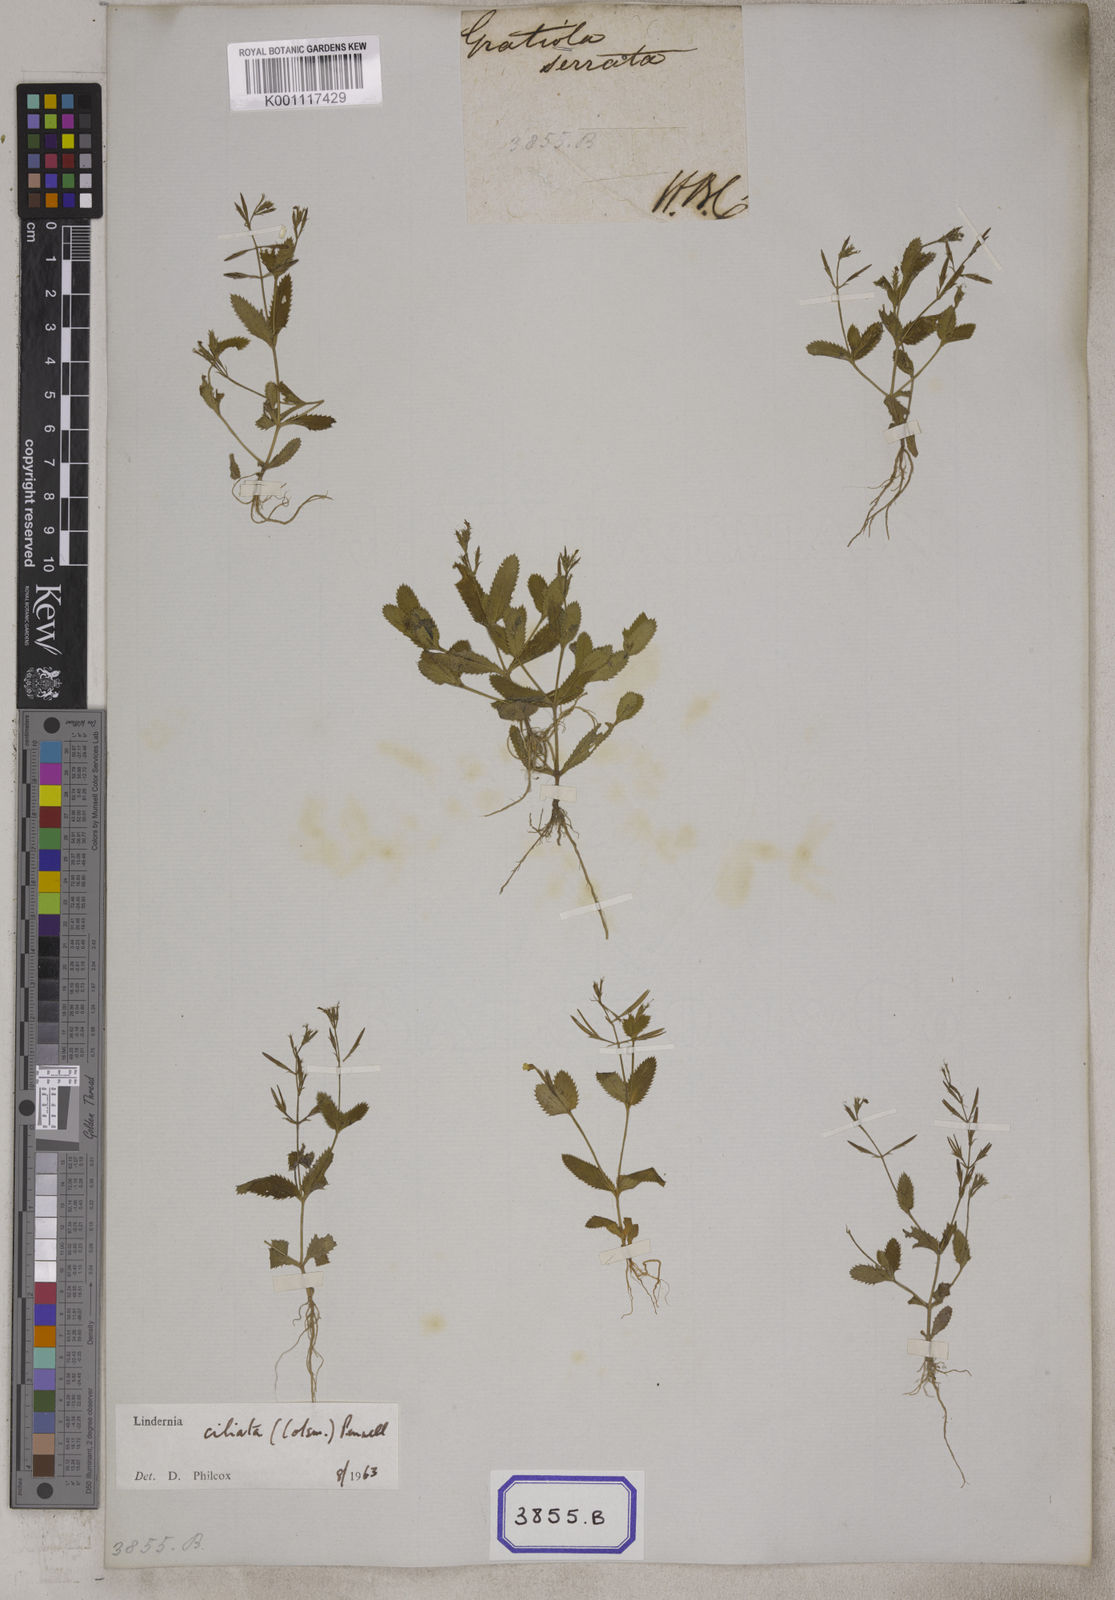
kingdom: Plantae
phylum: Tracheophyta
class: Magnoliopsida
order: Lamiales
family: Linderniaceae
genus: Bonnaya
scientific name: Bonnaya ciliata
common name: Hairy slitwort
